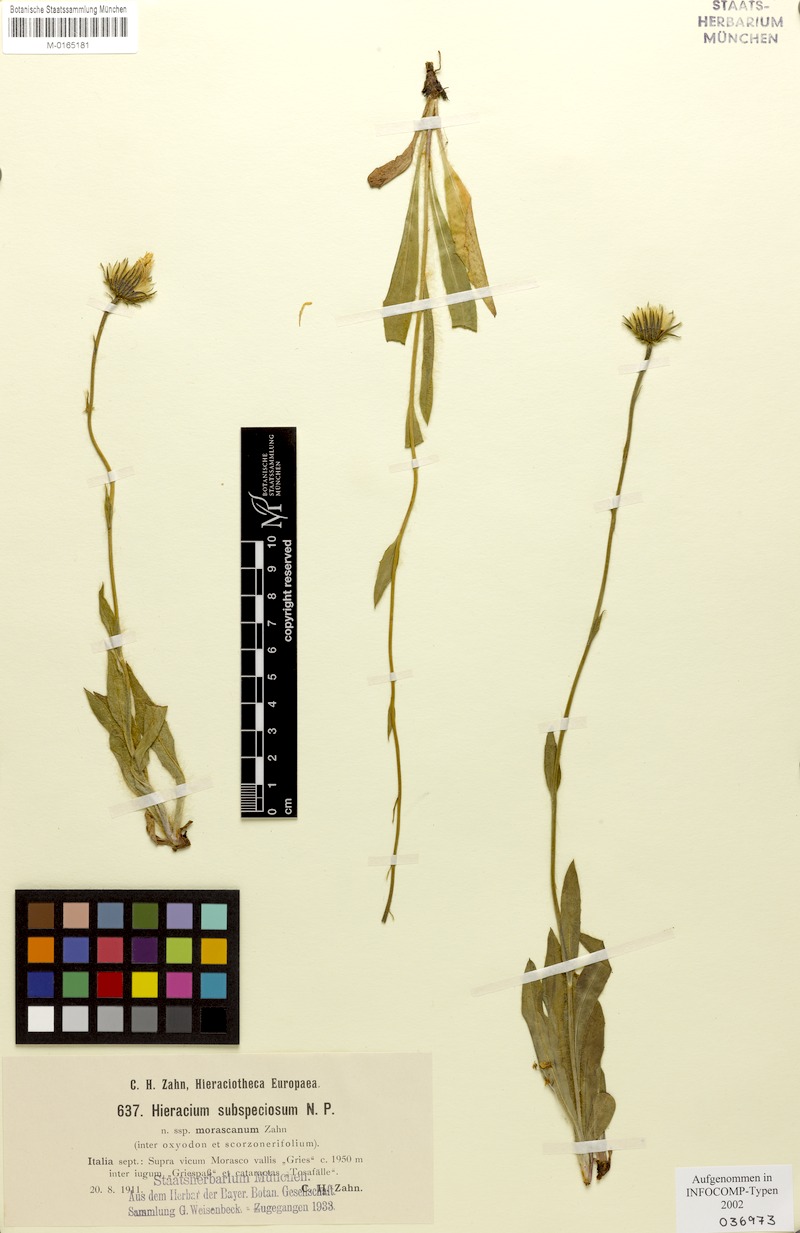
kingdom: Plantae
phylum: Tracheophyta
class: Magnoliopsida
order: Asterales
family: Asteraceae
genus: Hieracium
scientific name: Hieracium subspeciosum
